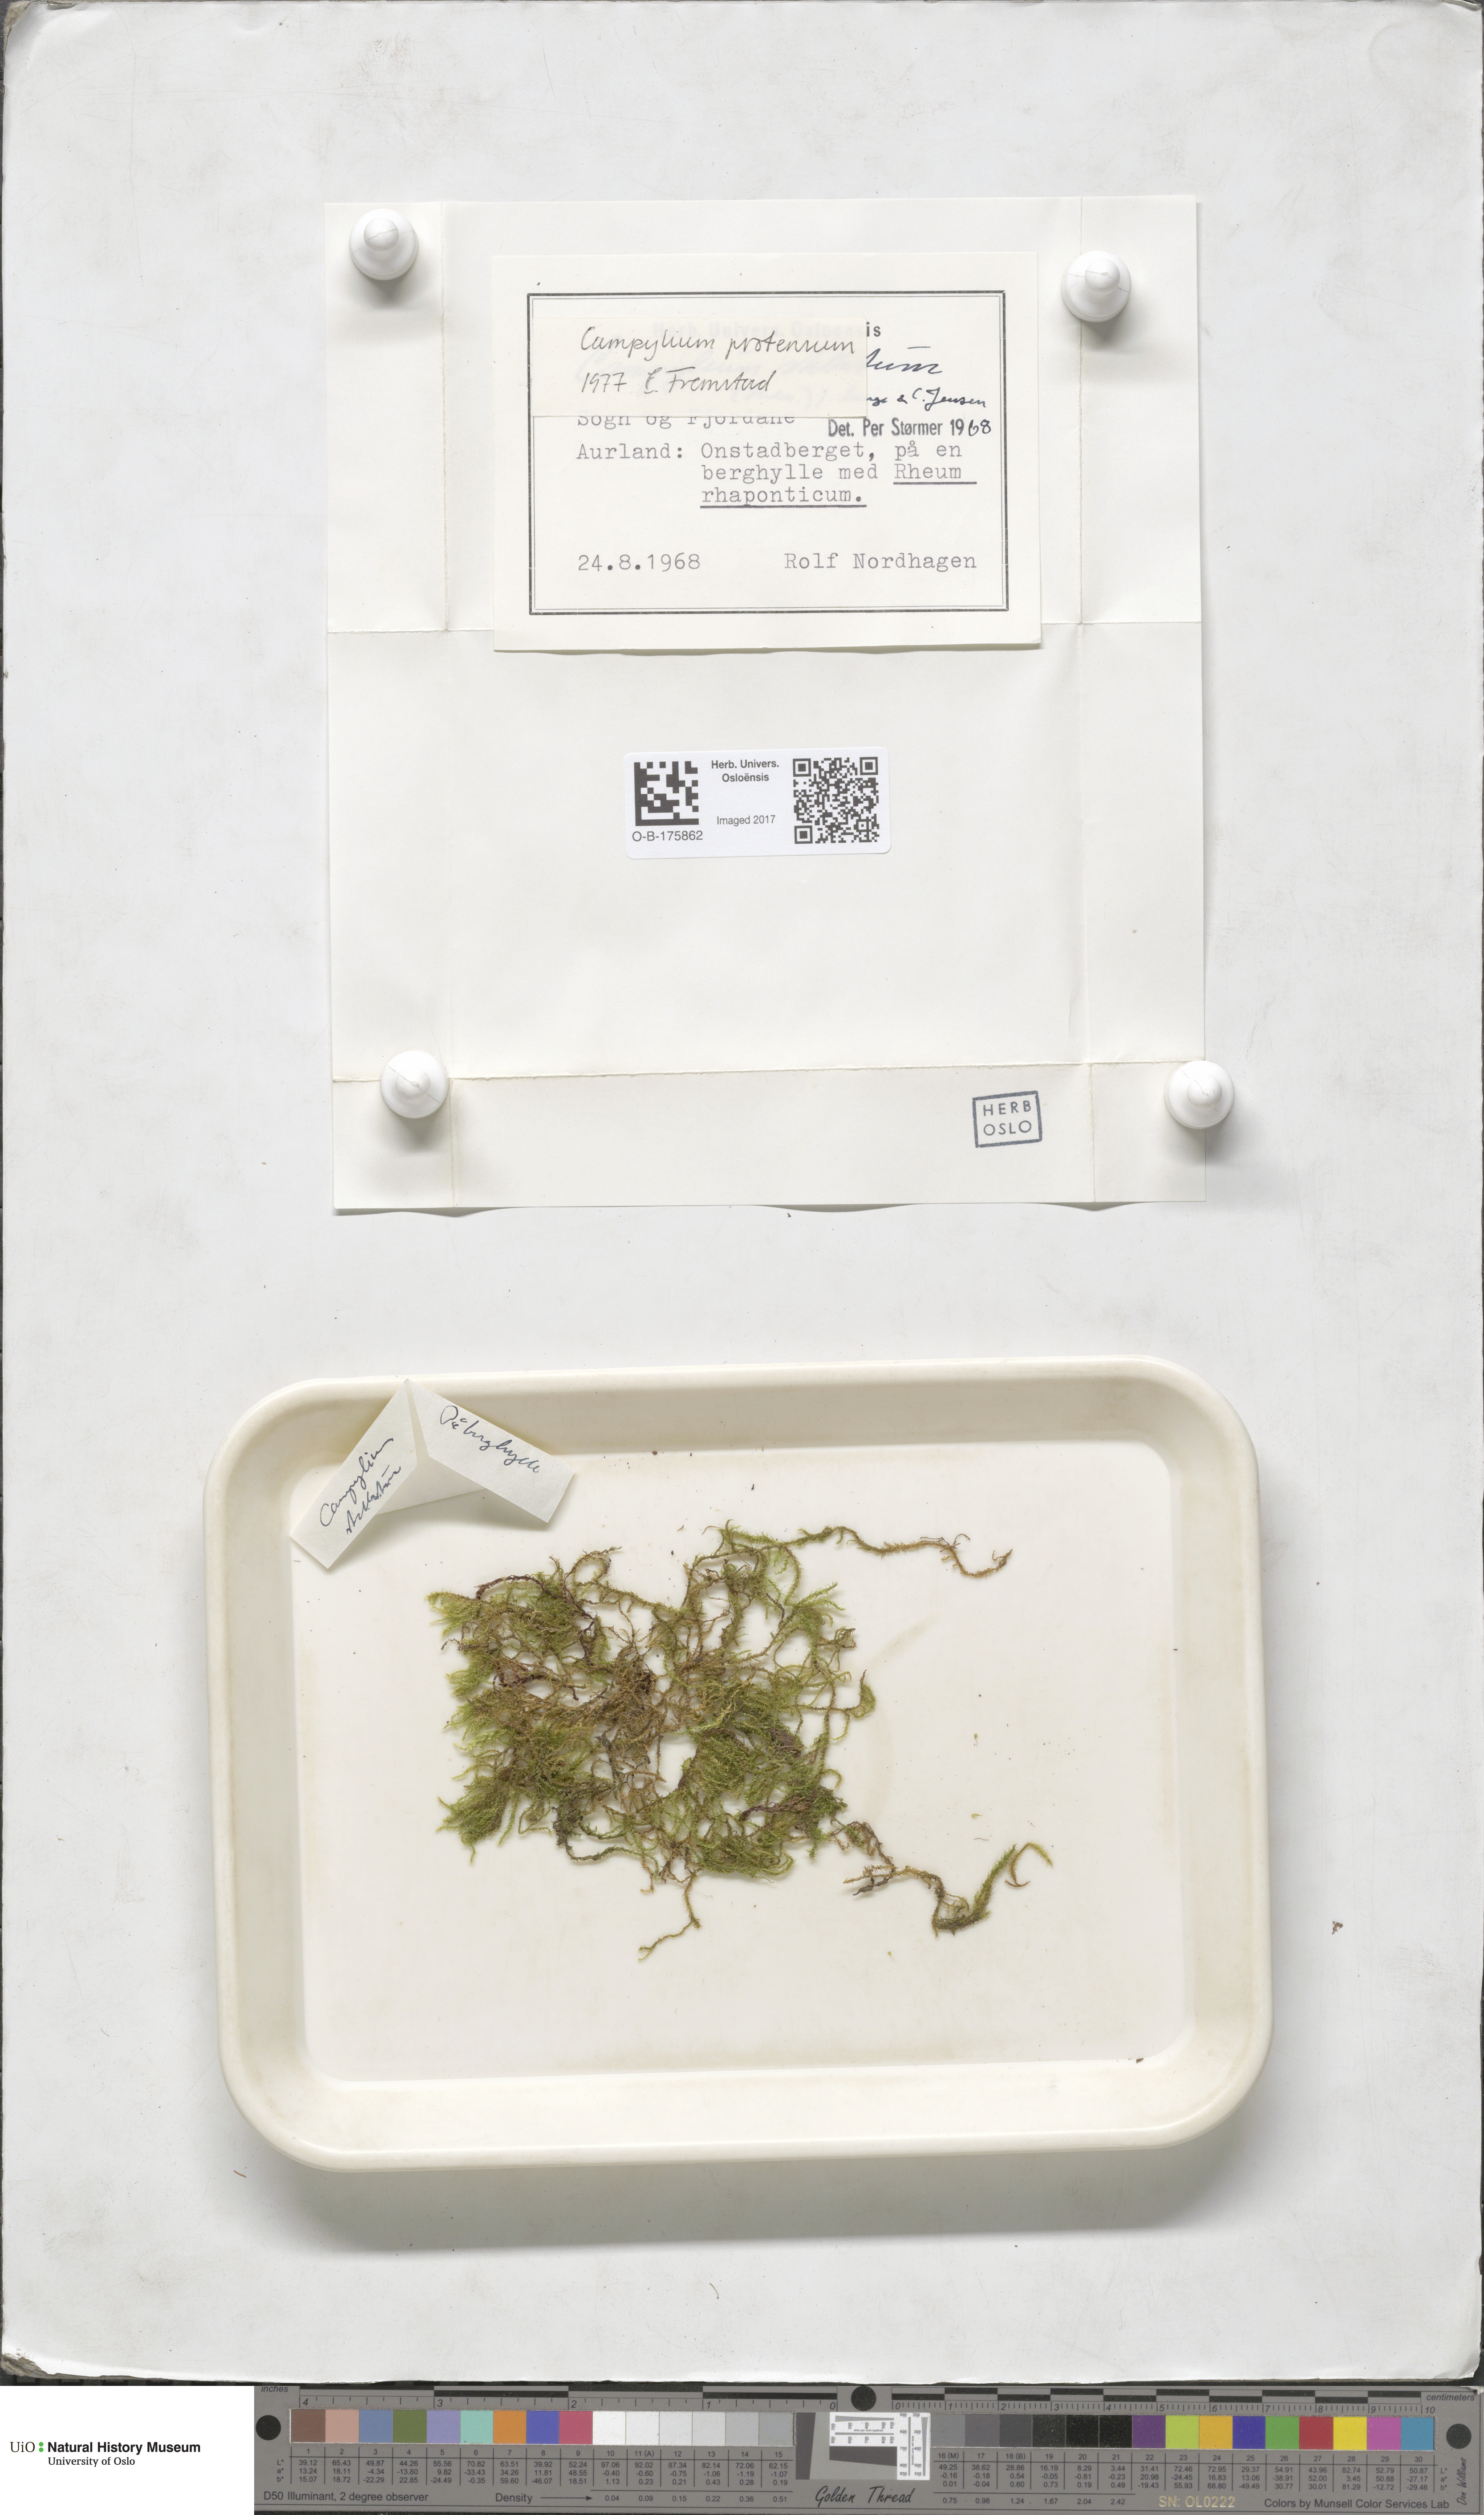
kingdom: Plantae
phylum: Bryophyta
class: Bryopsida
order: Hypnales
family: Amblystegiaceae
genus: Campylium
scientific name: Campylium stellatum
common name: Yellow starry fen moss
